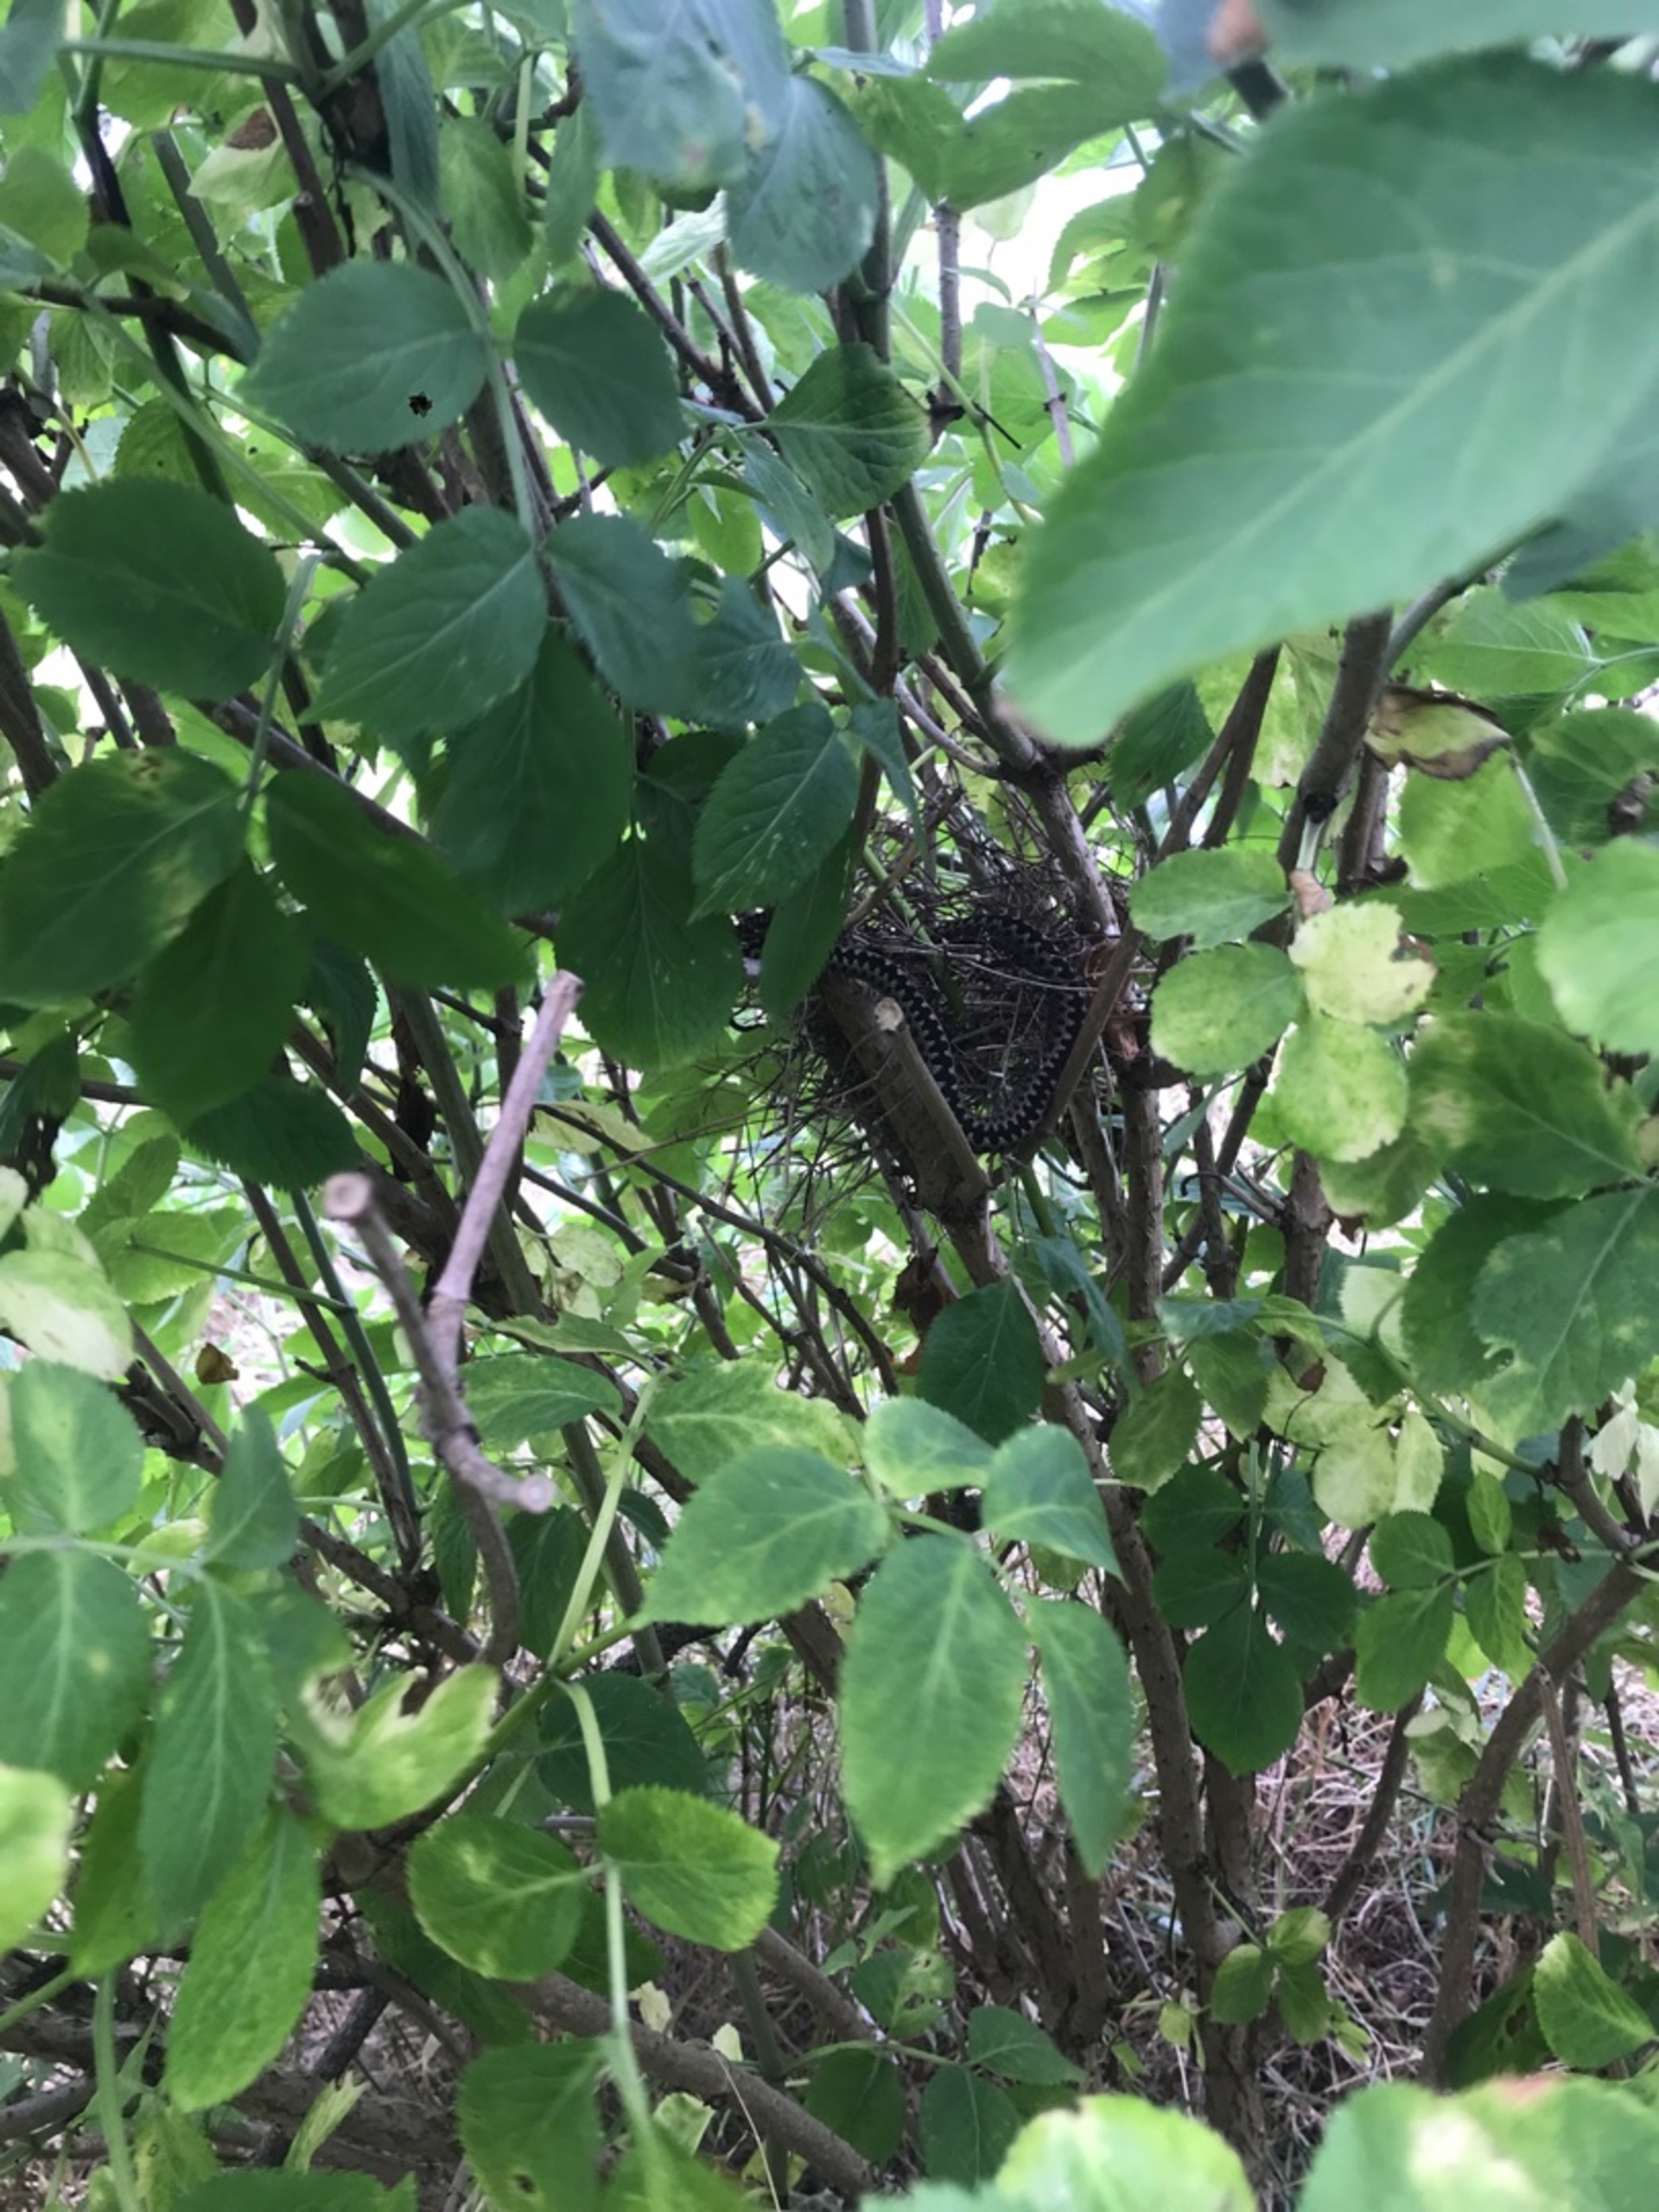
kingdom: Animalia
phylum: Chordata
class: Squamata
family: Viperidae
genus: Vipera
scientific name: Vipera berus
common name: Hugorm
